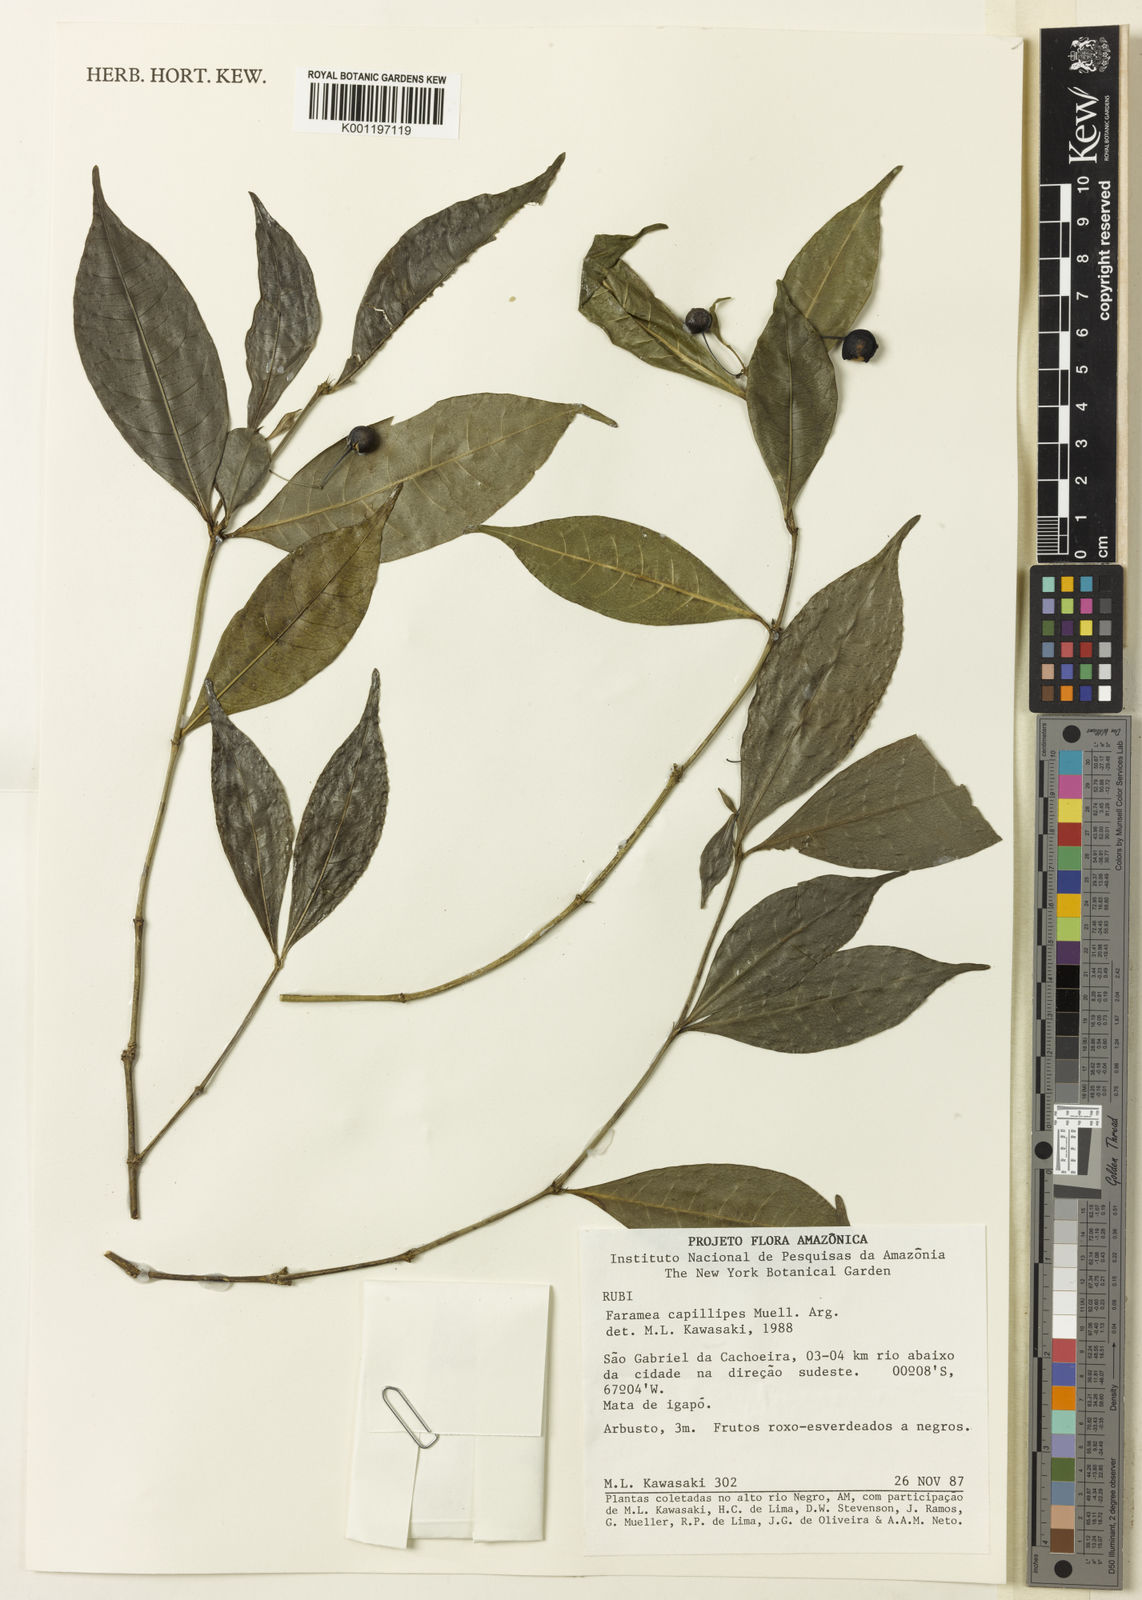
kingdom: Plantae
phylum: Tracheophyta
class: Magnoliopsida
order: Gentianales
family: Rubiaceae
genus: Faramea
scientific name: Faramea
